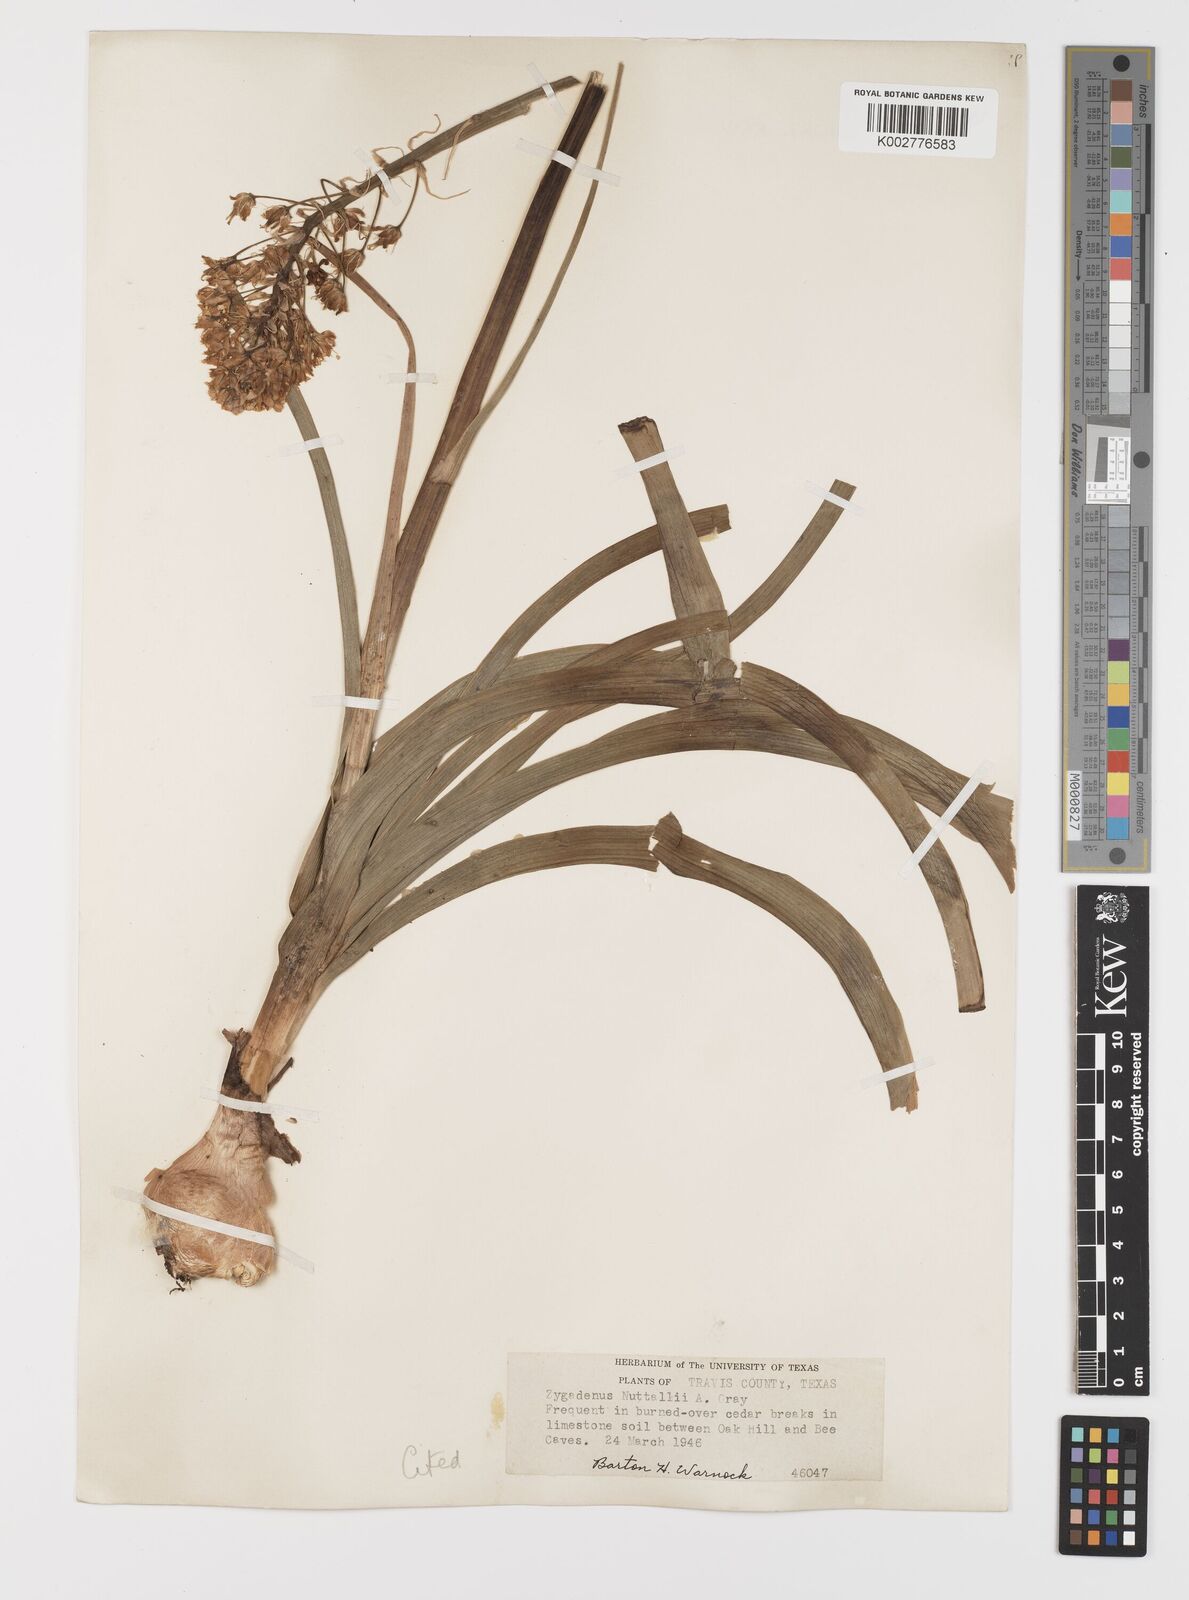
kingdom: Plantae
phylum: Tracheophyta
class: Liliopsida
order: Liliales
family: Melanthiaceae
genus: Toxicoscordion
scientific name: Toxicoscordion nuttallii
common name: Poison sego
